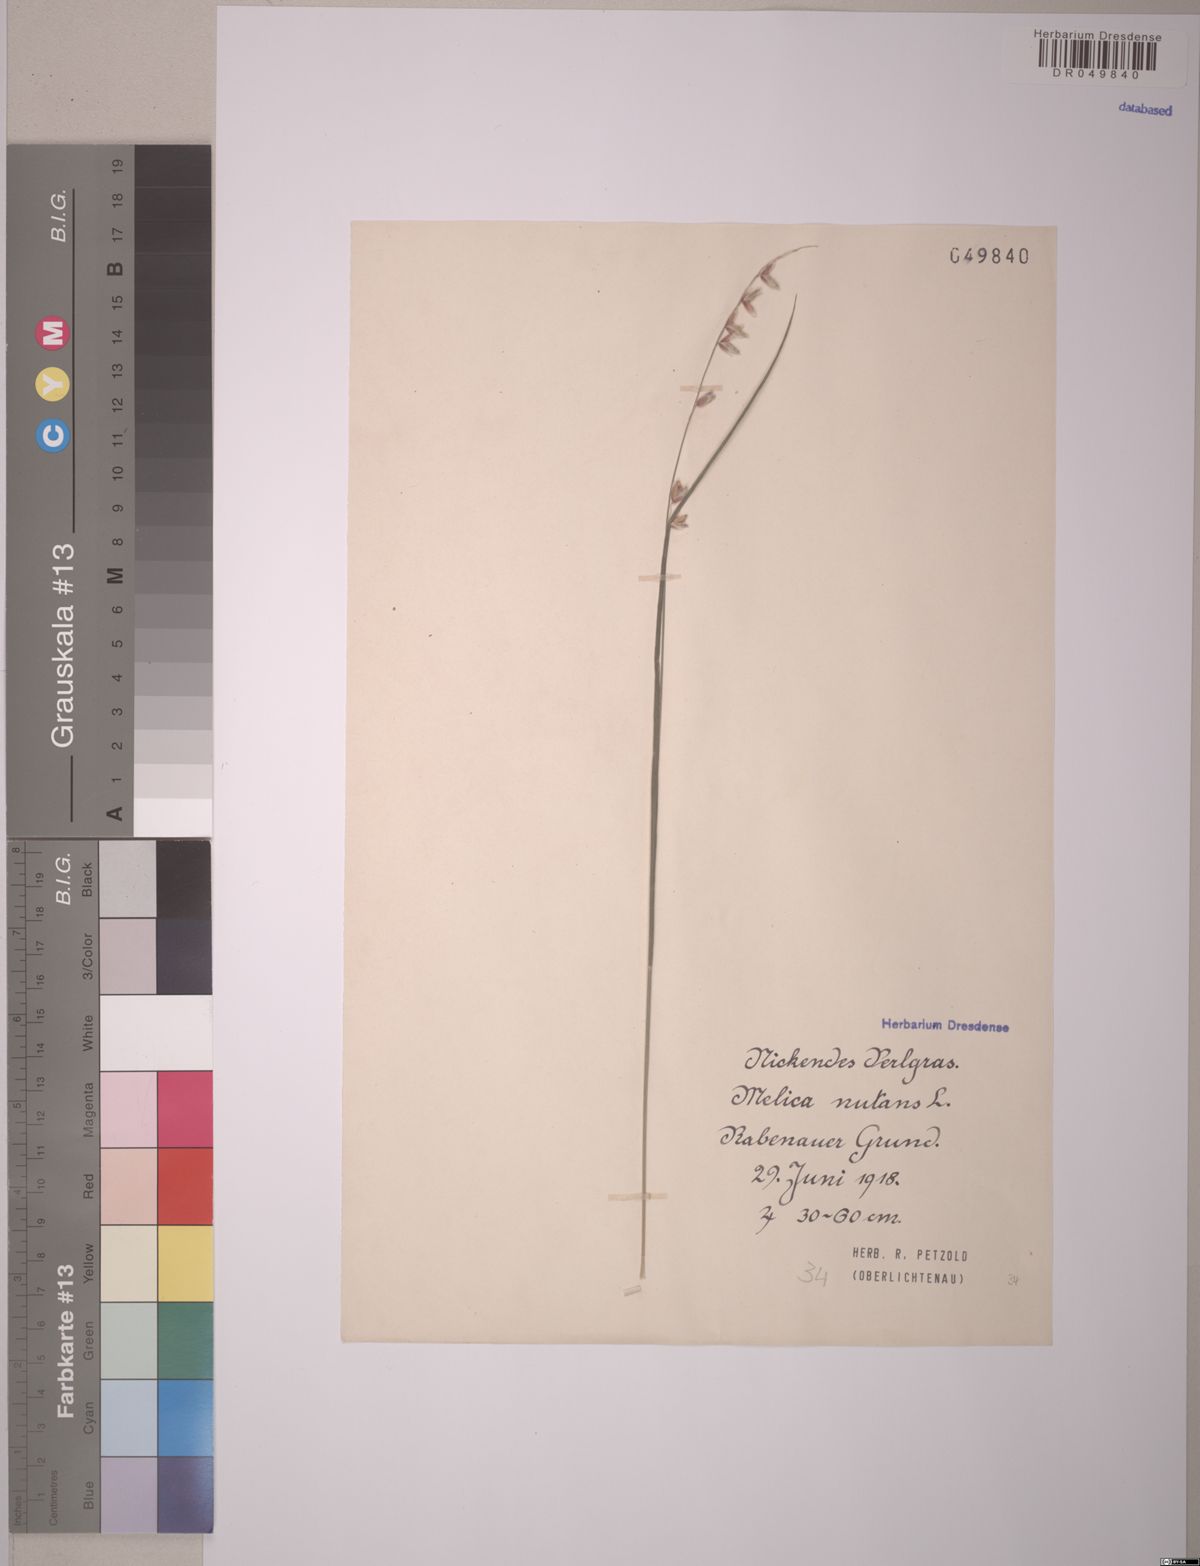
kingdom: Plantae
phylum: Tracheophyta
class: Liliopsida
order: Poales
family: Poaceae
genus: Melica
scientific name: Melica nutans
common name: Mountain melick
